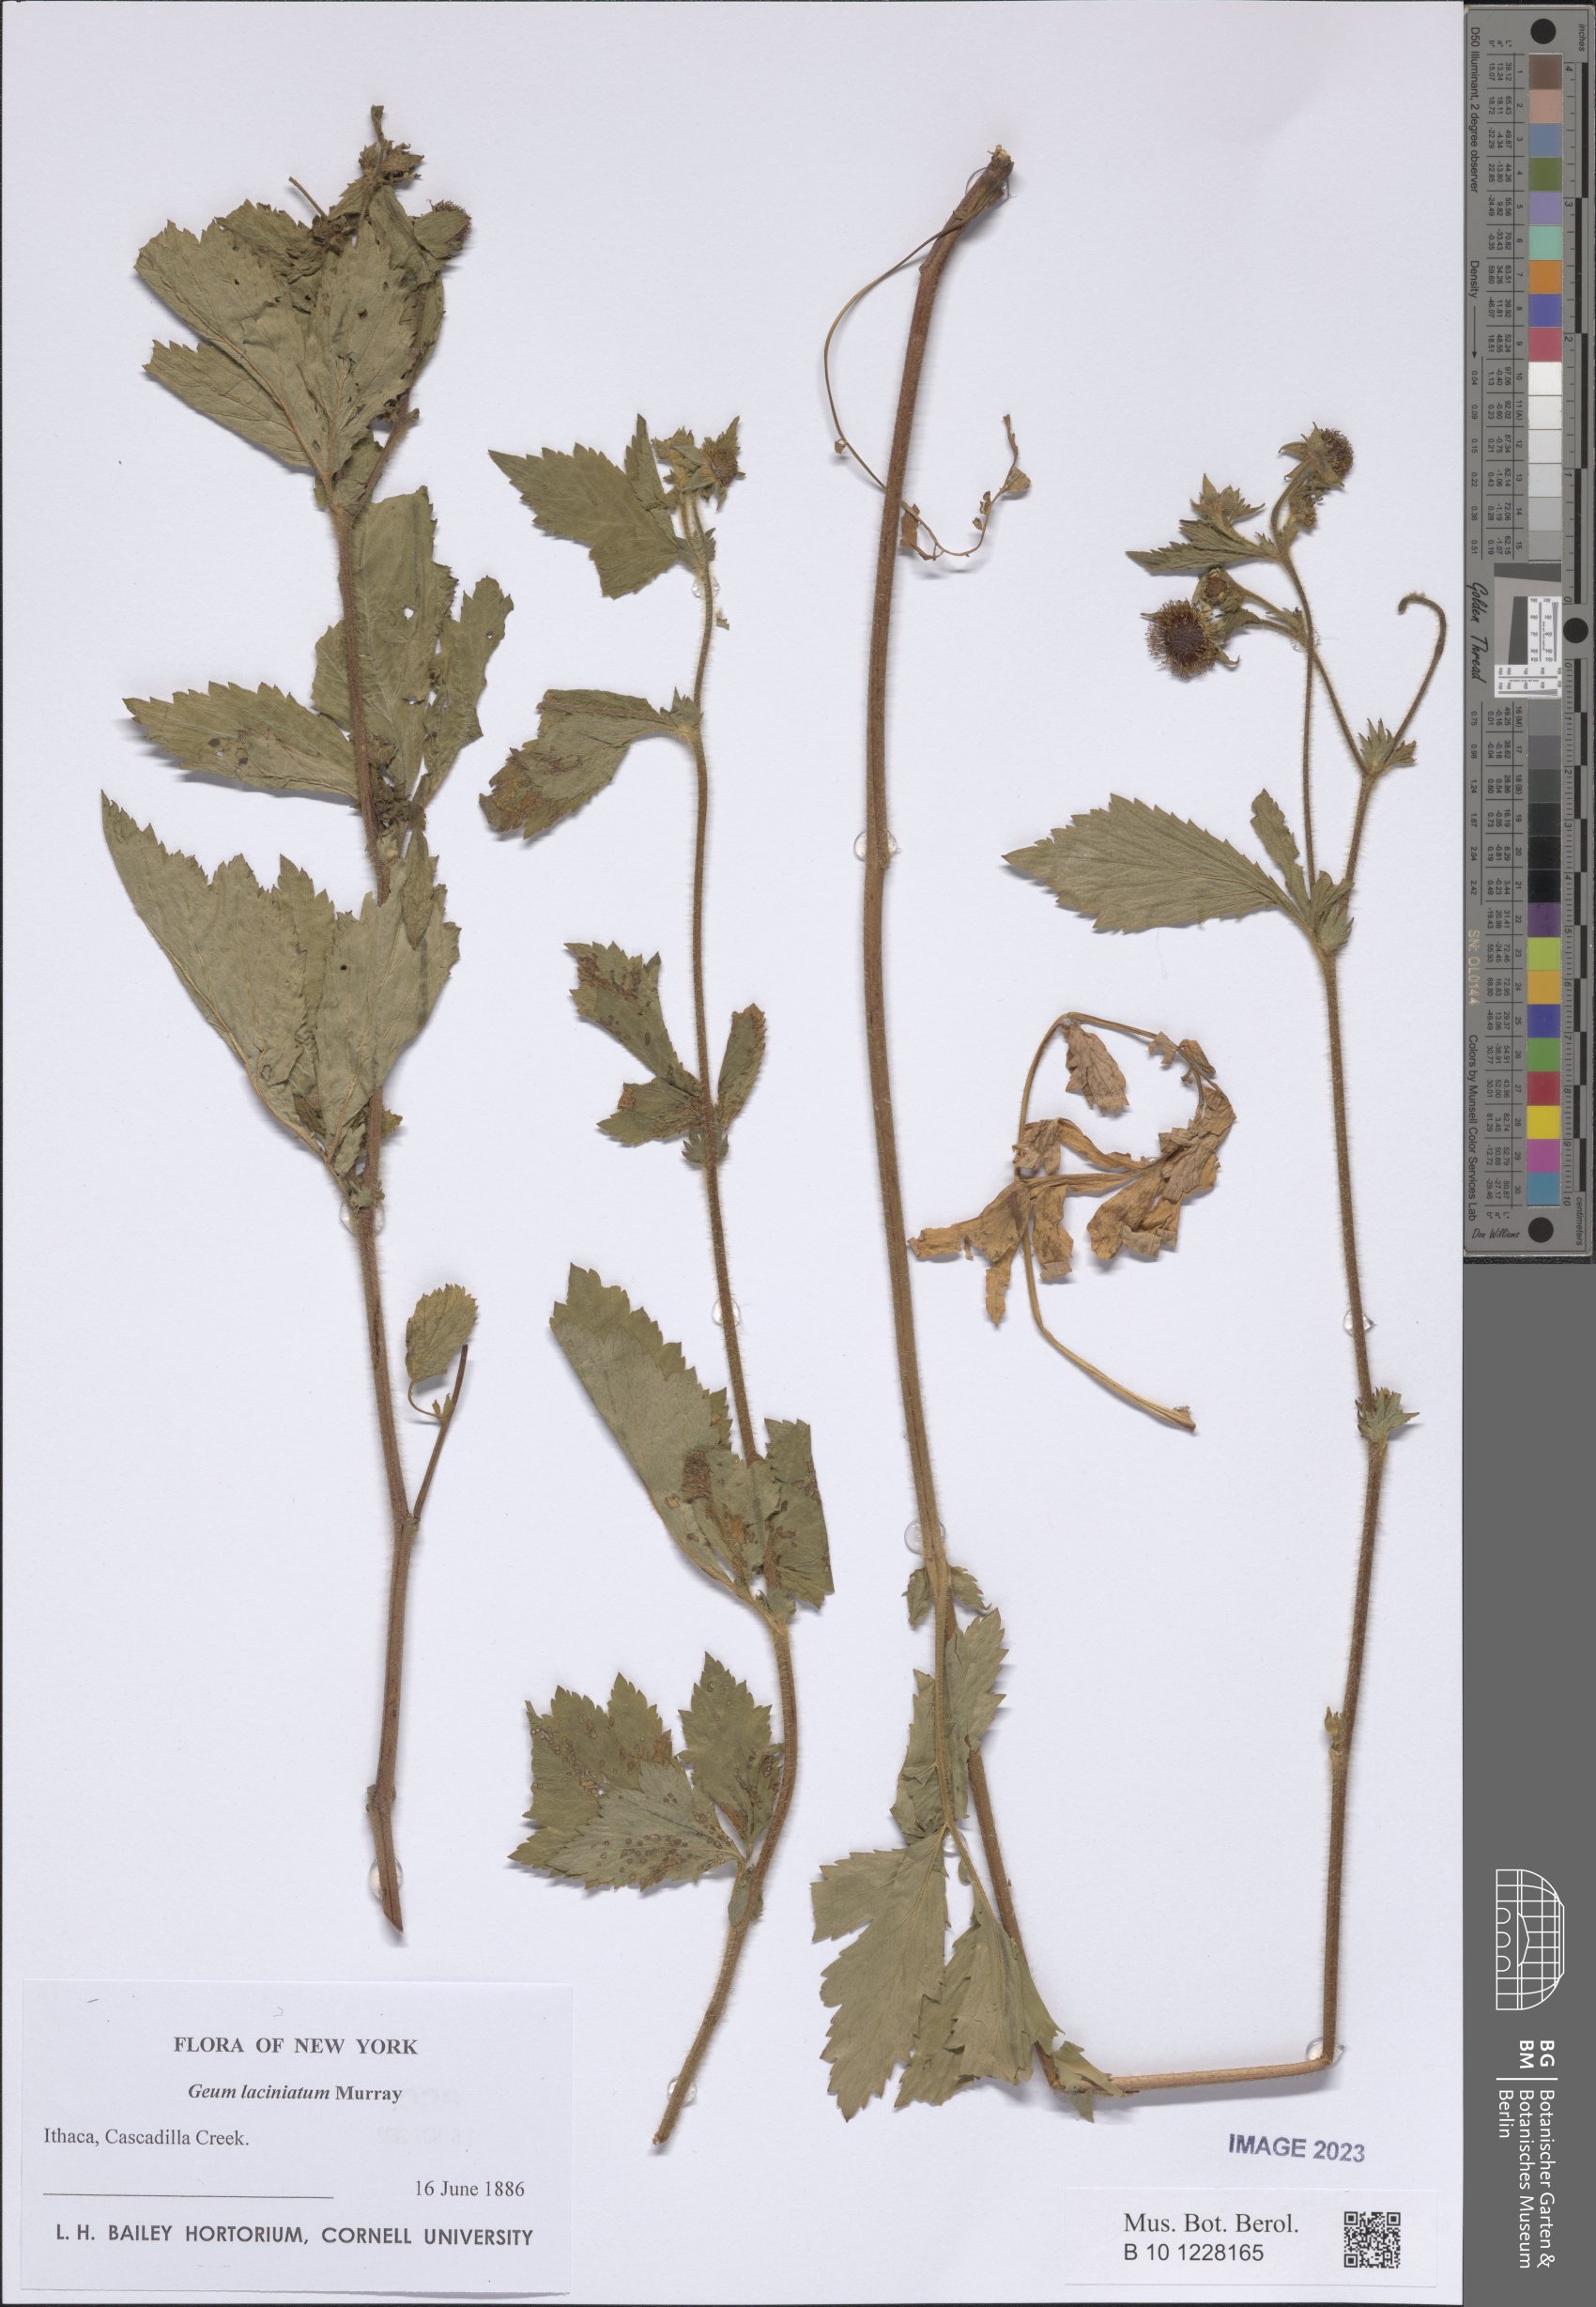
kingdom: Plantae
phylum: Tracheophyta
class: Magnoliopsida
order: Rosales
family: Rosaceae
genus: Geum
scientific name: Geum laciniatum
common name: Rough avens
